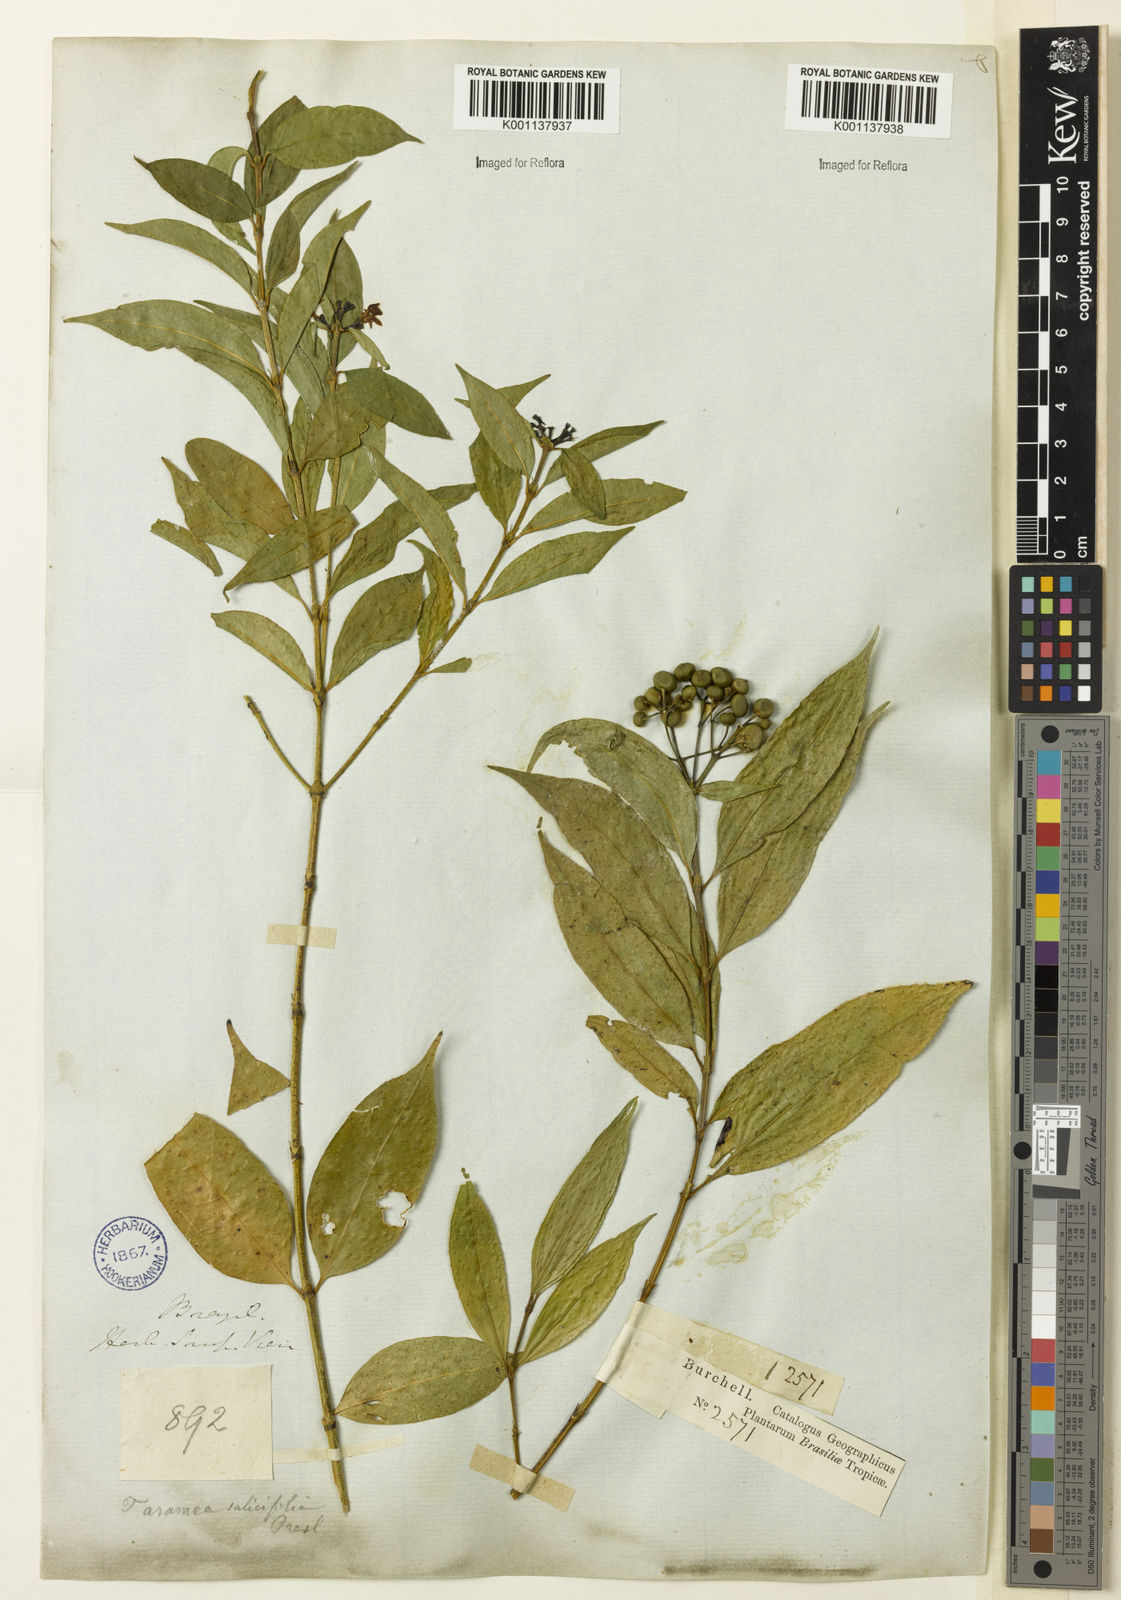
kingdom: Plantae
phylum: Tracheophyta
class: Magnoliopsida
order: Gentianales
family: Rubiaceae
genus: Faramea
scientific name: Faramea multiflora
